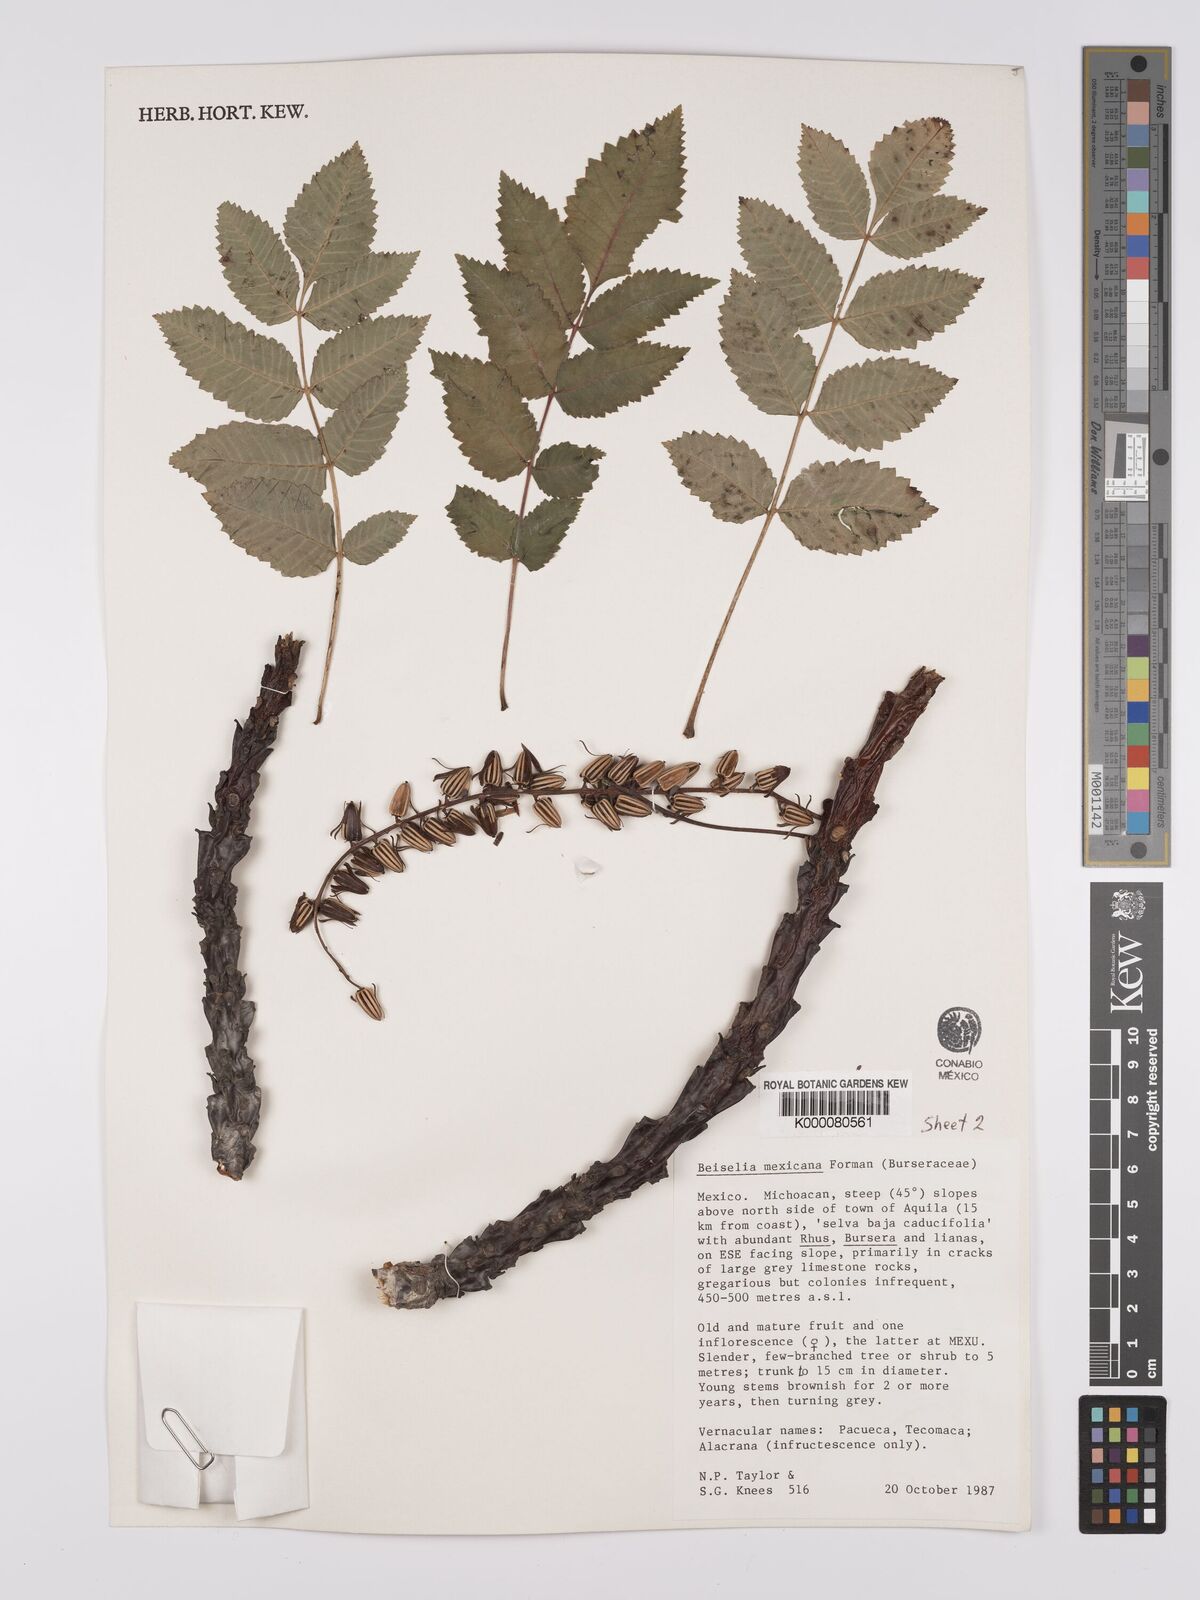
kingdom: Plantae
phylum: Tracheophyta
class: Magnoliopsida
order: Sapindales
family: Burseraceae
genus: Beiselia
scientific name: Beiselia mexicana
